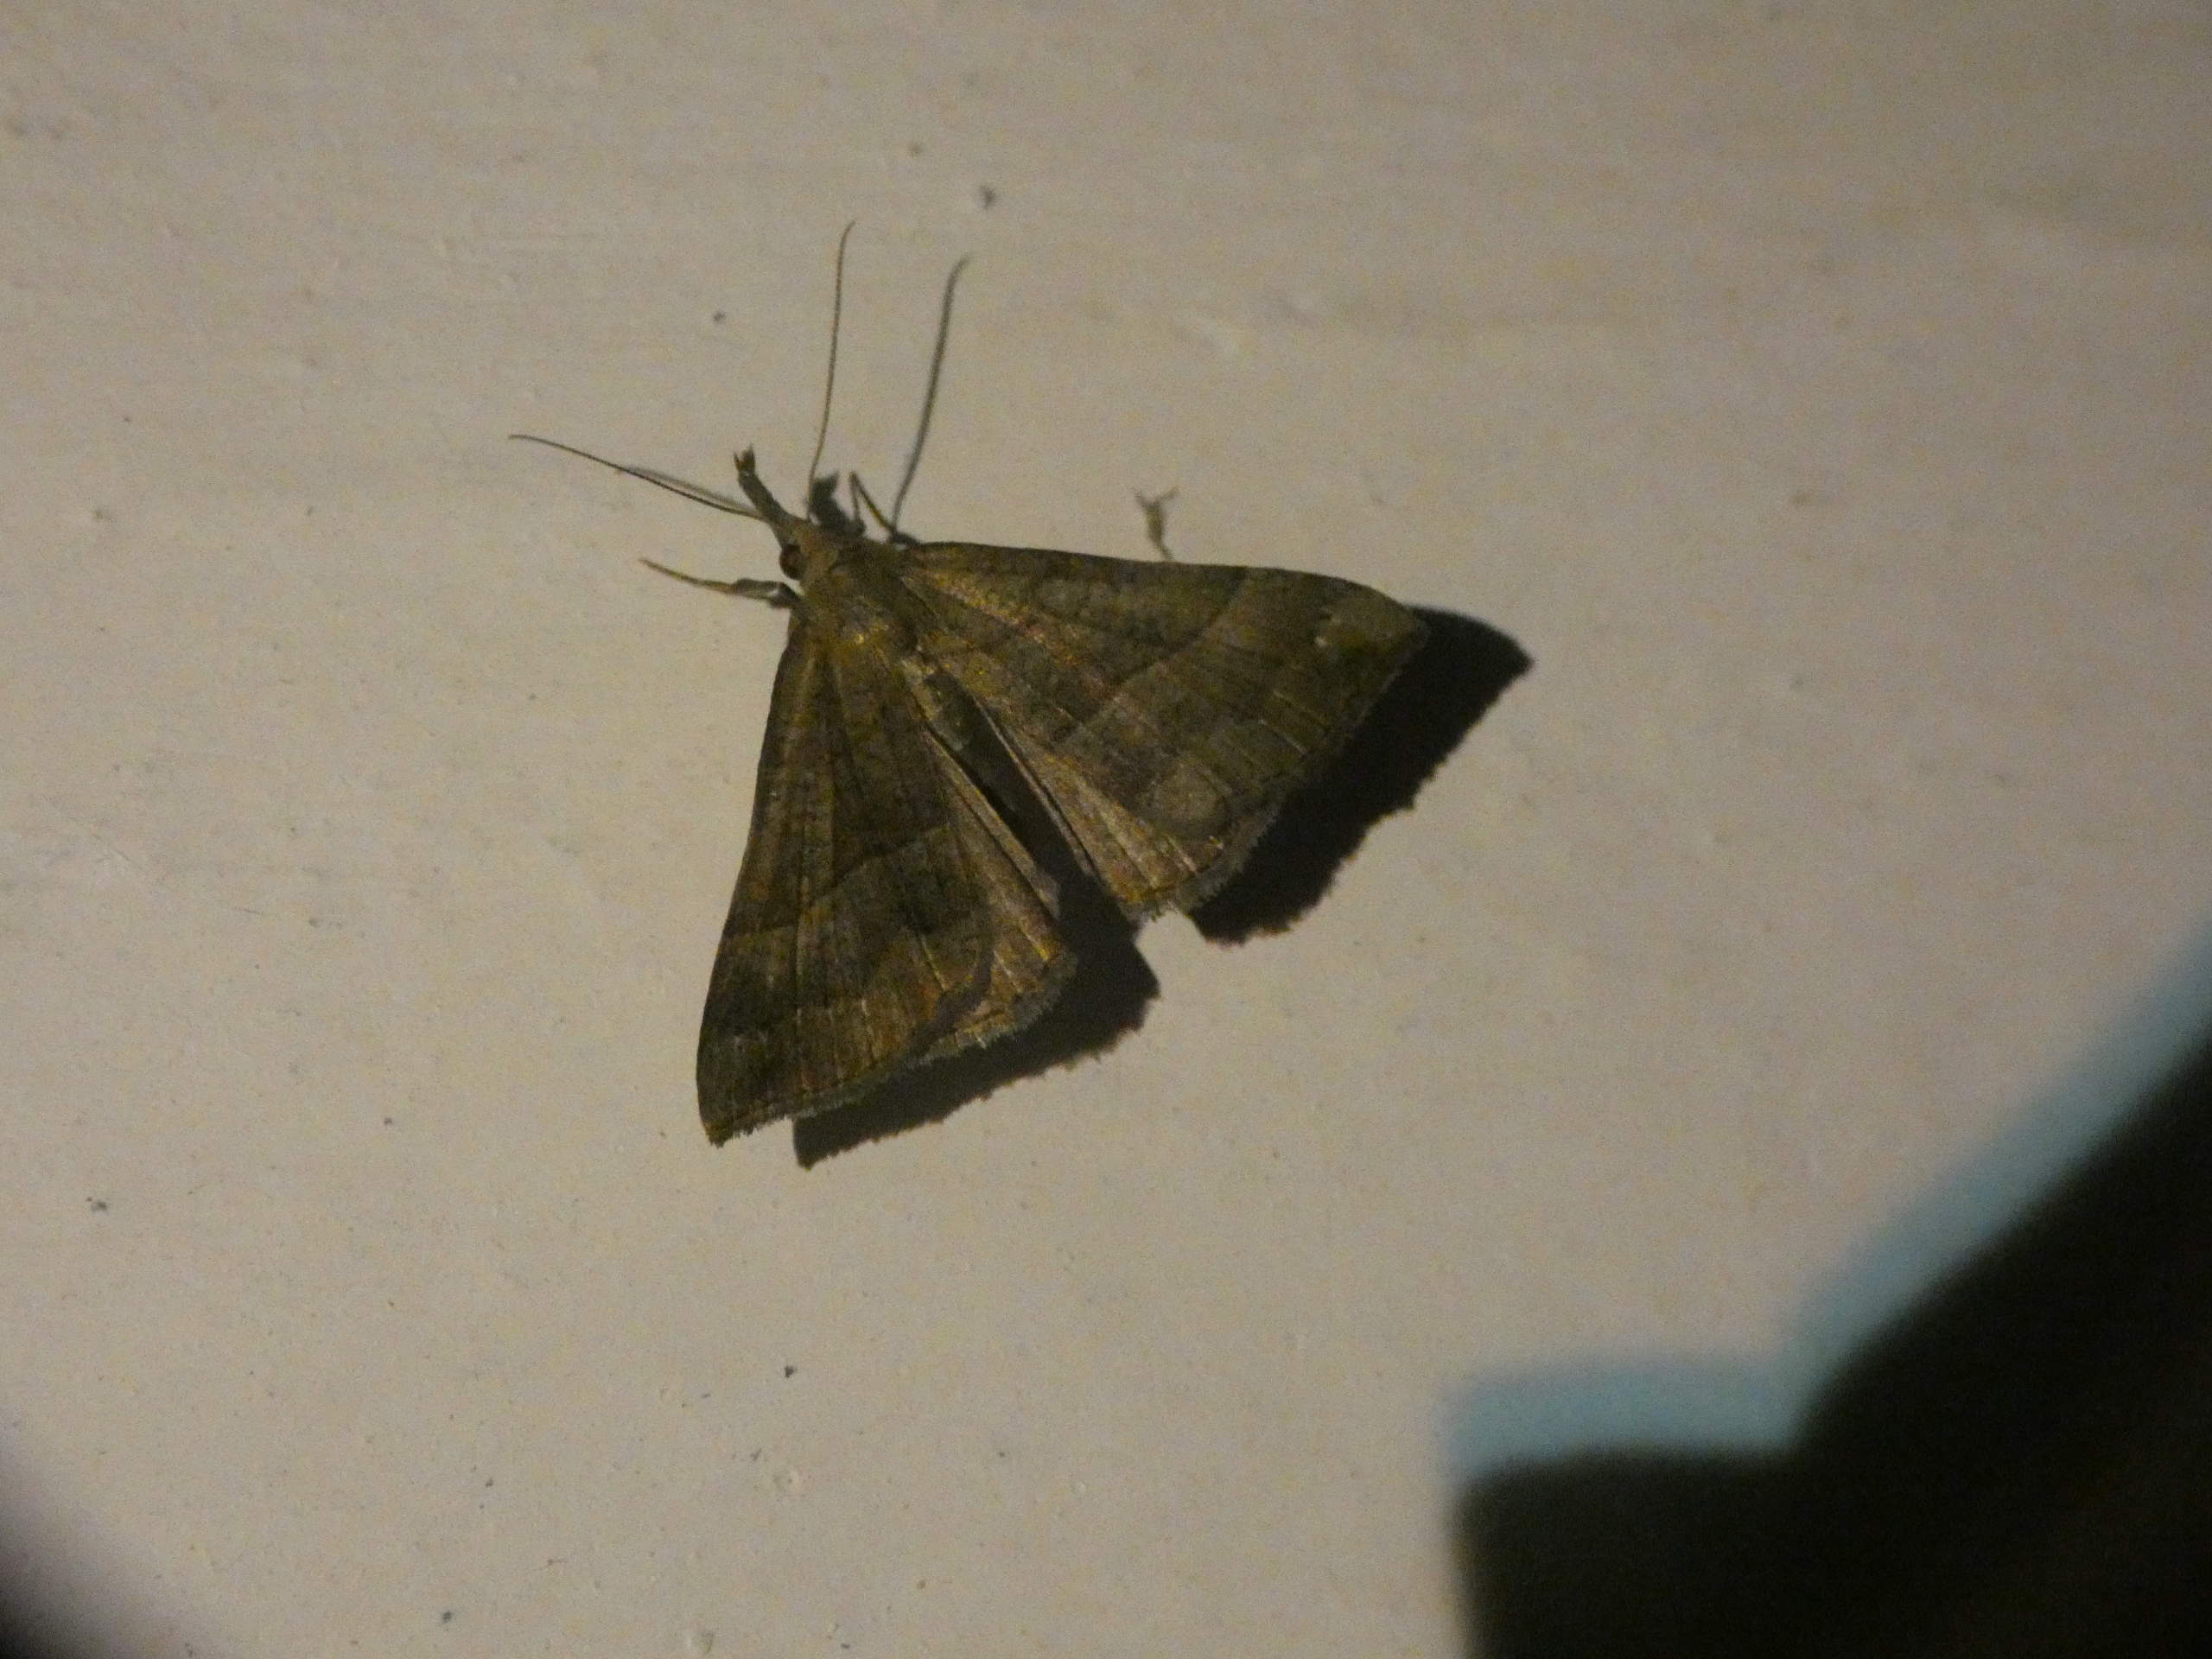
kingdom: Animalia
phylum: Arthropoda
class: Insecta
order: Lepidoptera
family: Erebidae
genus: Hypena
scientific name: Hypena proboscidalis
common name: Snudeugle
